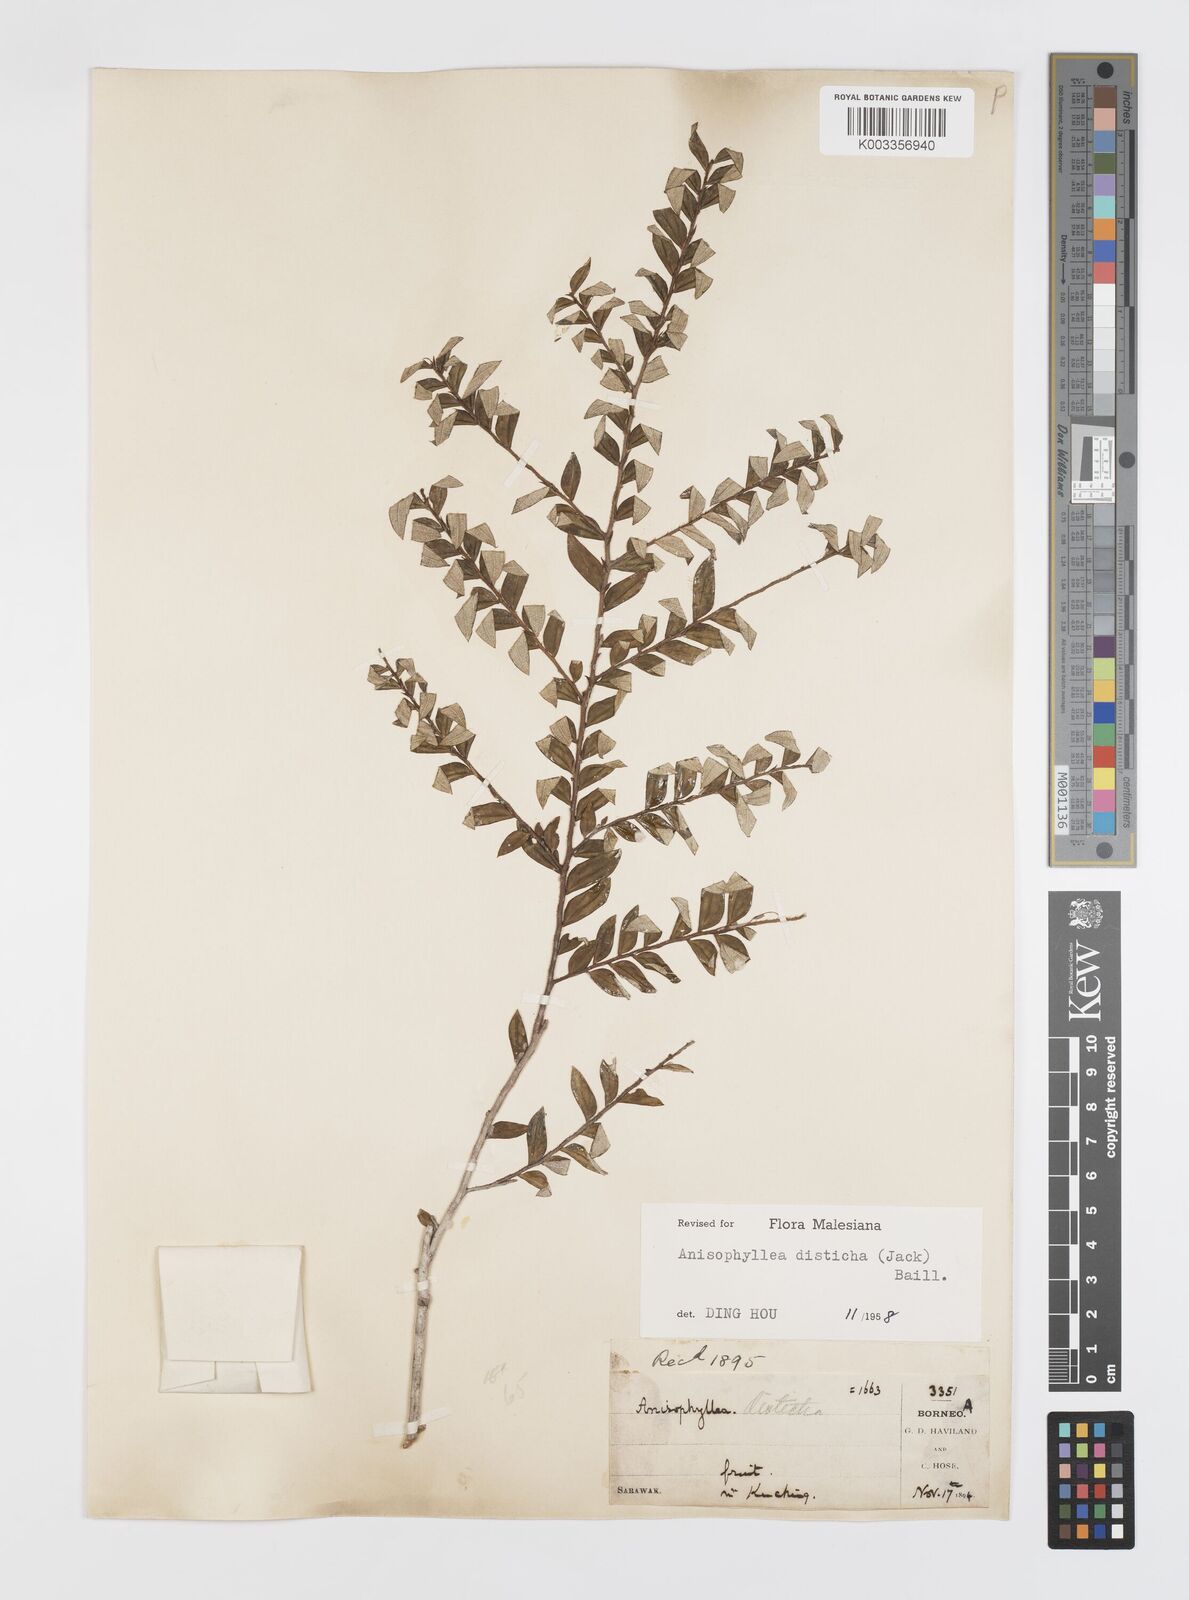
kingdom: Plantae
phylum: Tracheophyta
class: Magnoliopsida
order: Cucurbitales
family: Anisophylleaceae
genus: Anisophyllea
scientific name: Anisophyllea disticha
